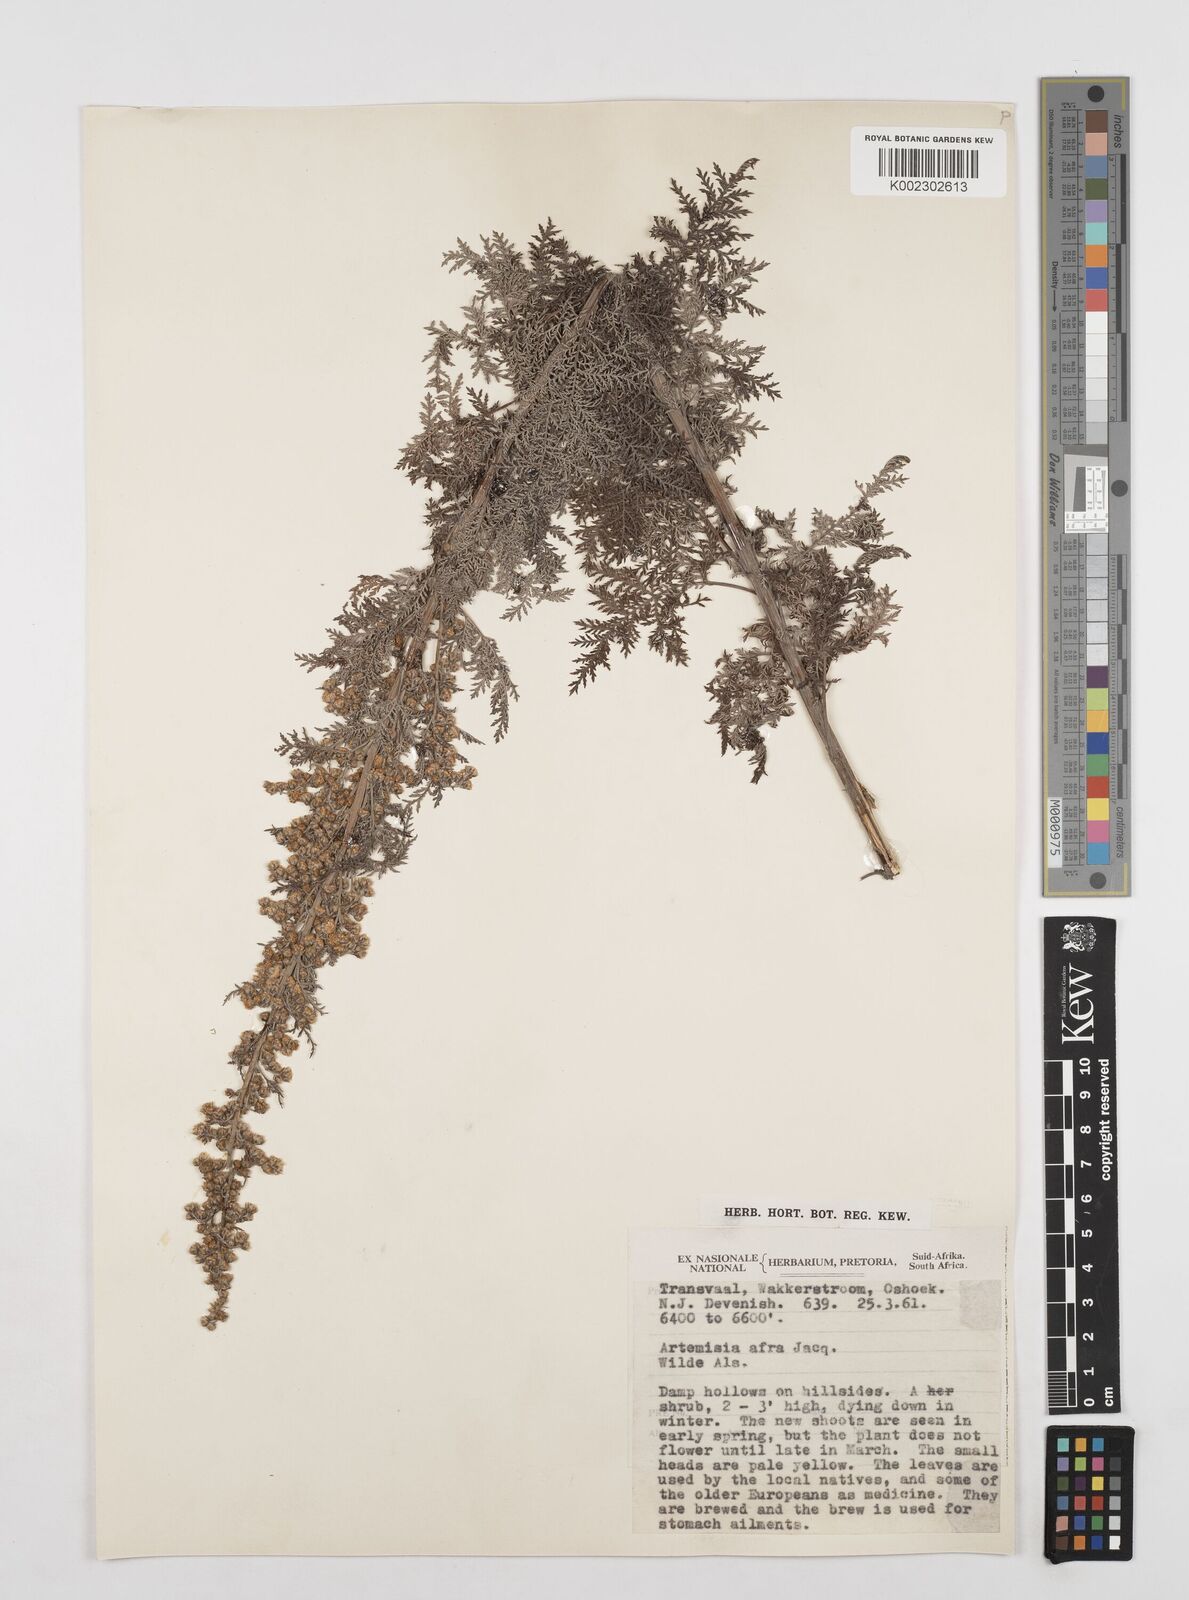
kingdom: Plantae
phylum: Tracheophyta
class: Magnoliopsida
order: Asterales
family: Asteraceae
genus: Artemisia
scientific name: Artemisia afra
